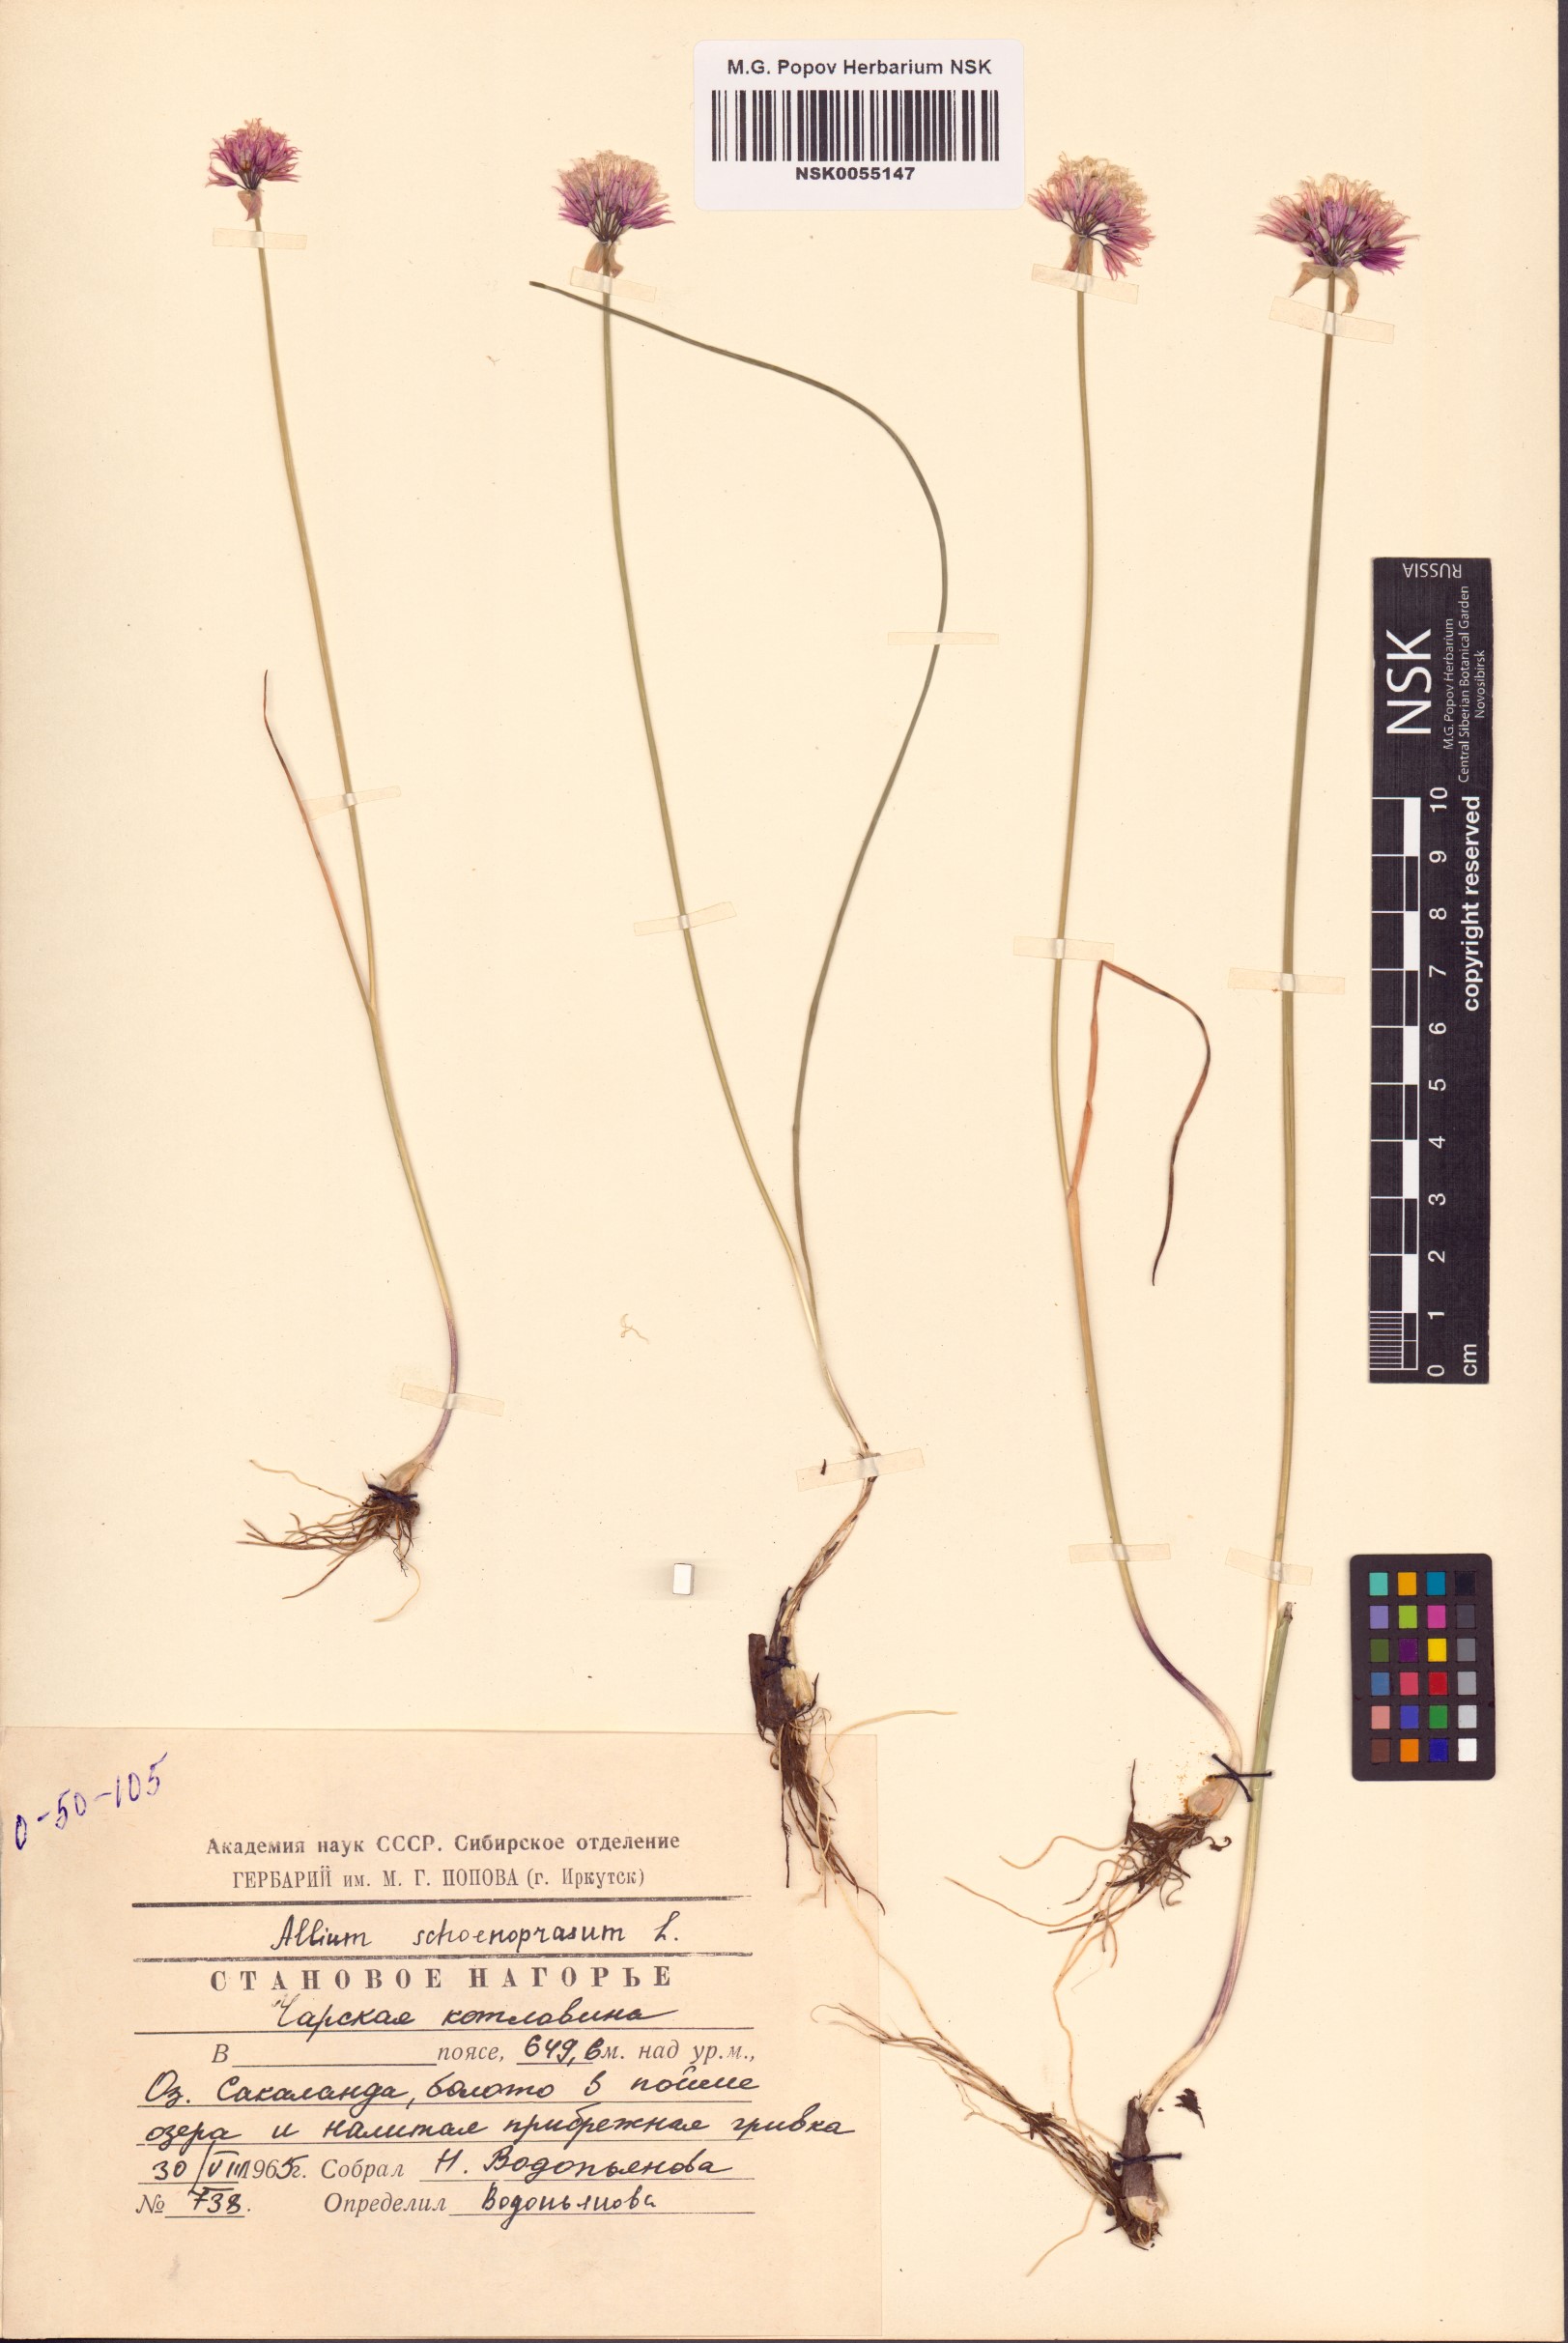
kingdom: Plantae
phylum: Tracheophyta
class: Liliopsida
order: Asparagales
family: Amaryllidaceae
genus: Allium
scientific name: Allium schoenoprasum
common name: Chives
